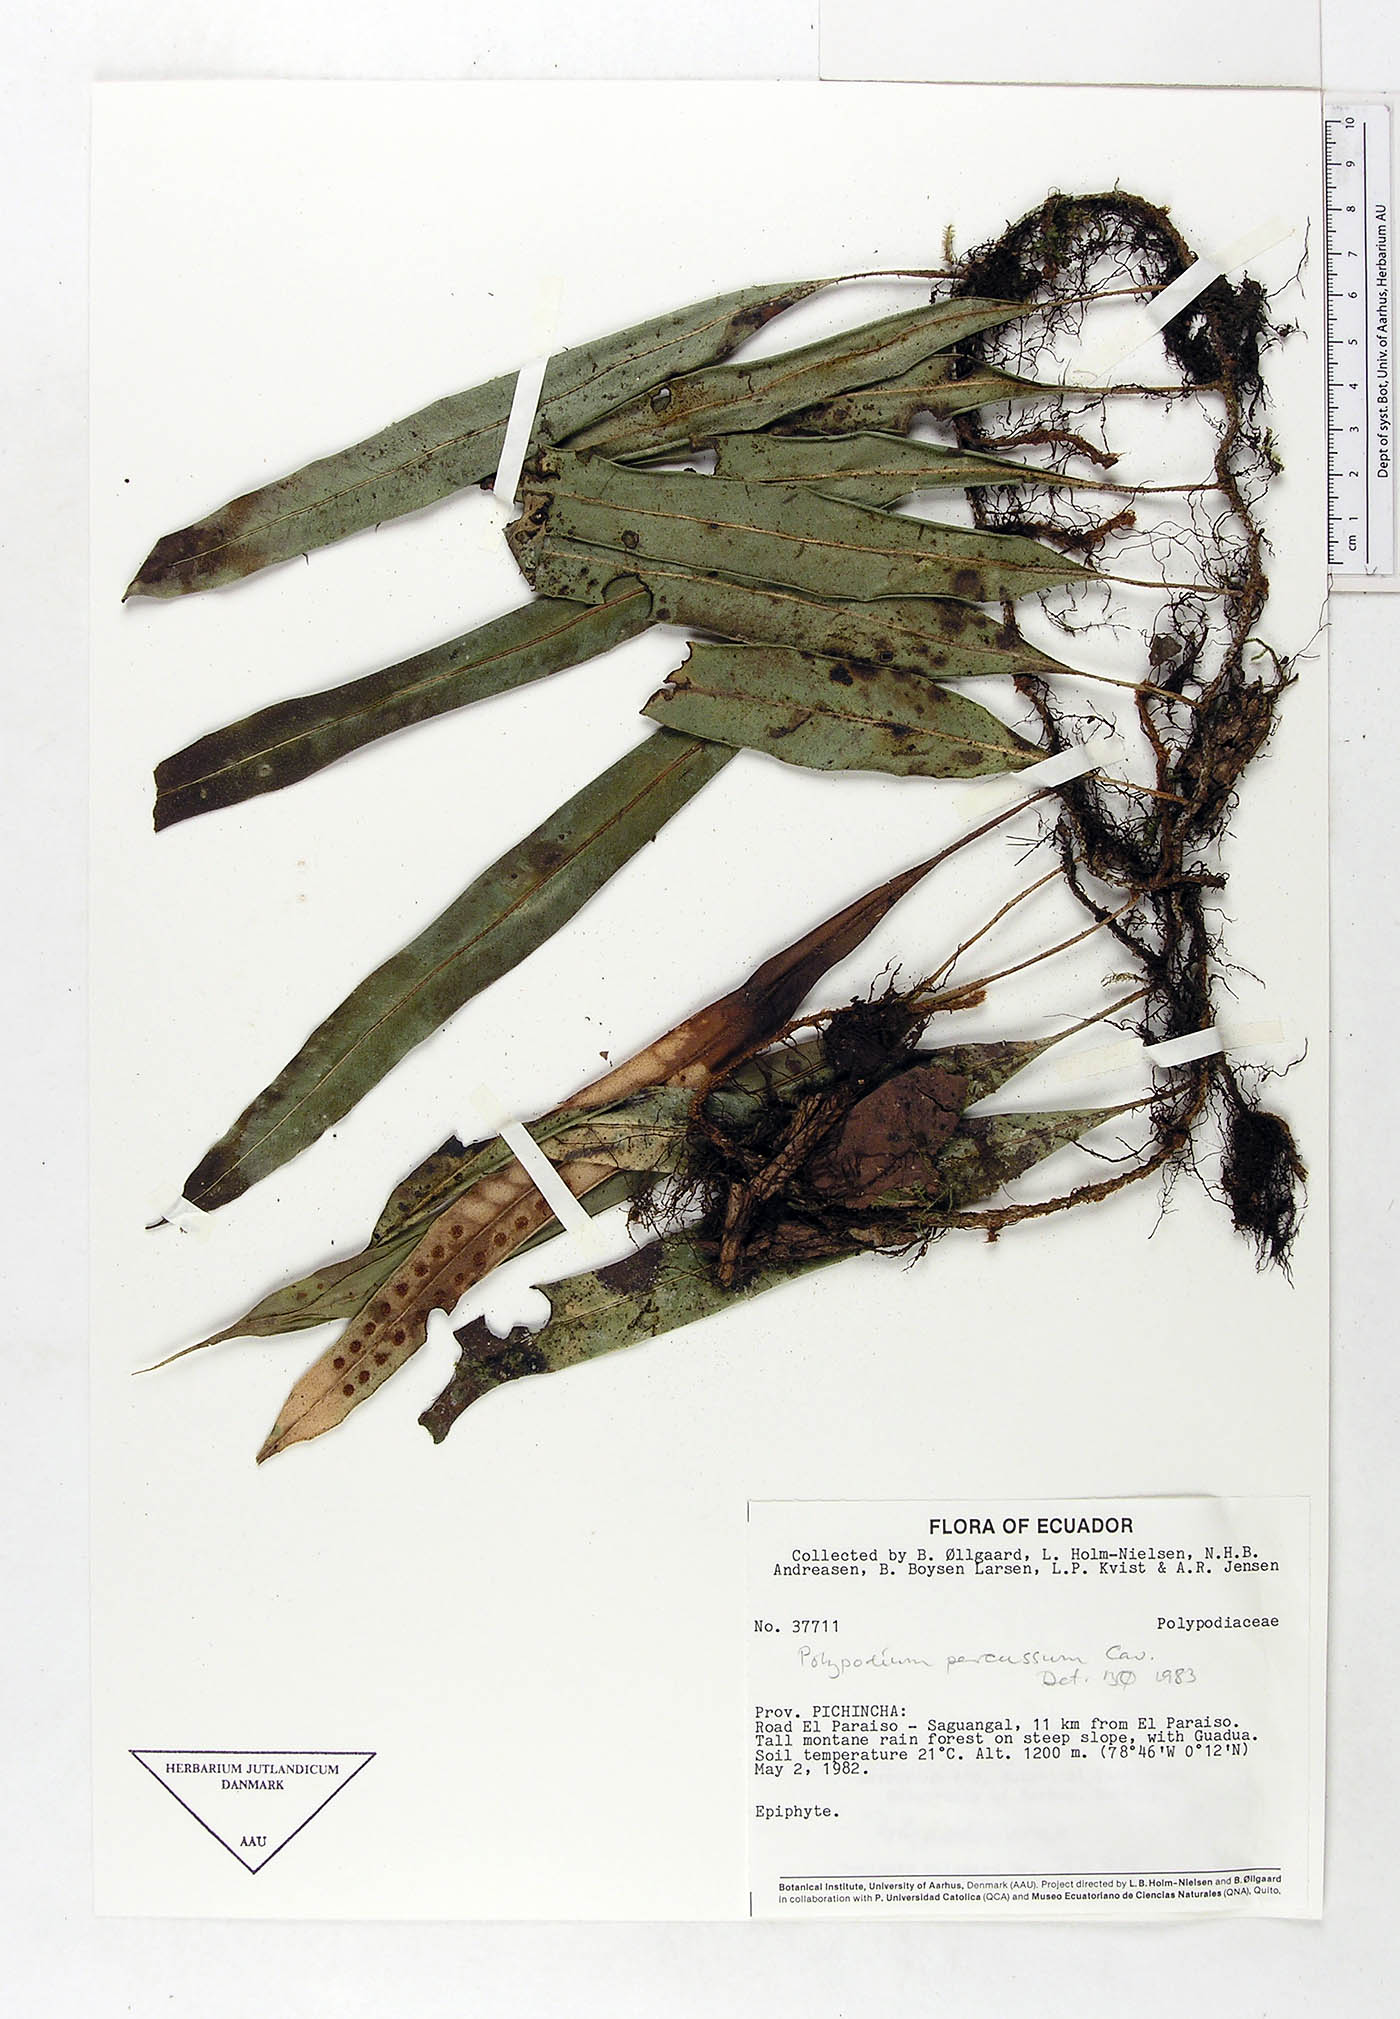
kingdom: Plantae
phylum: Tracheophyta
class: Polypodiopsida
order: Polypodiales
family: Polypodiaceae
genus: Microgramma
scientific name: Microgramma percussa
